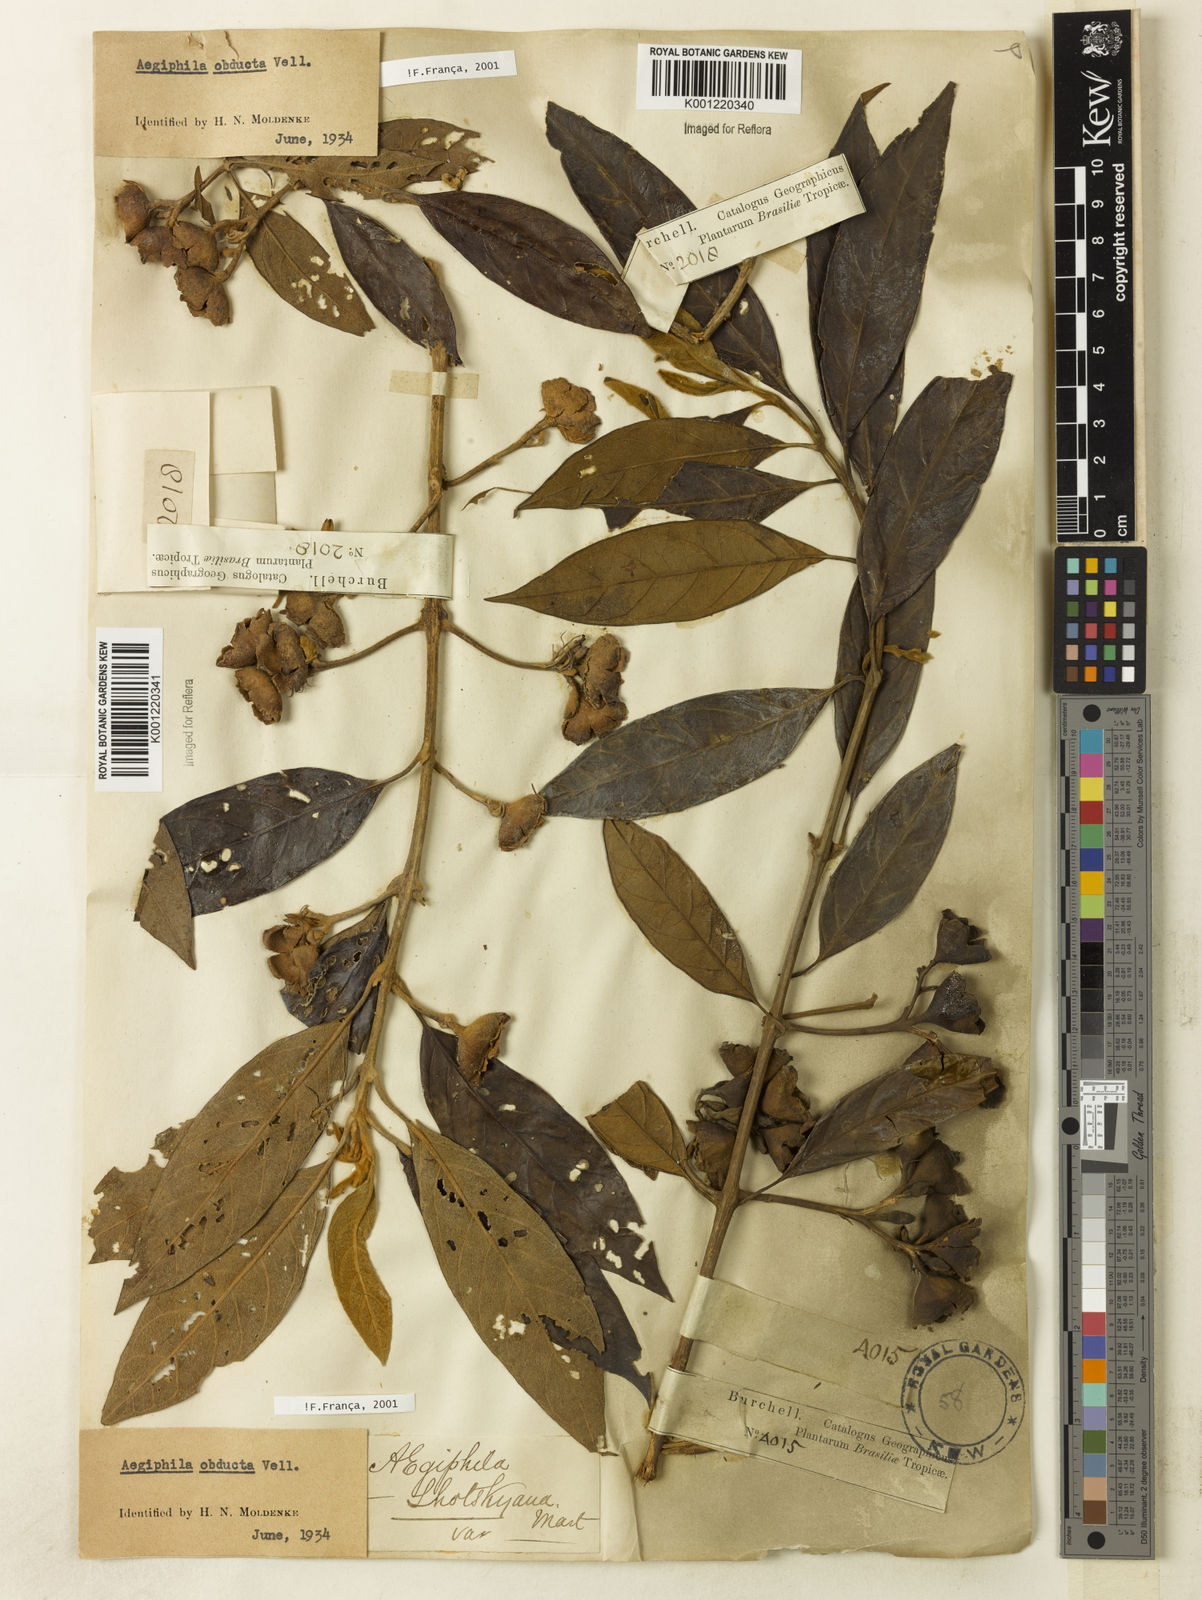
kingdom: Plantae
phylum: Tracheophyta
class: Magnoliopsida
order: Lamiales
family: Lamiaceae
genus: Aegiphila
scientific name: Aegiphila obducta
